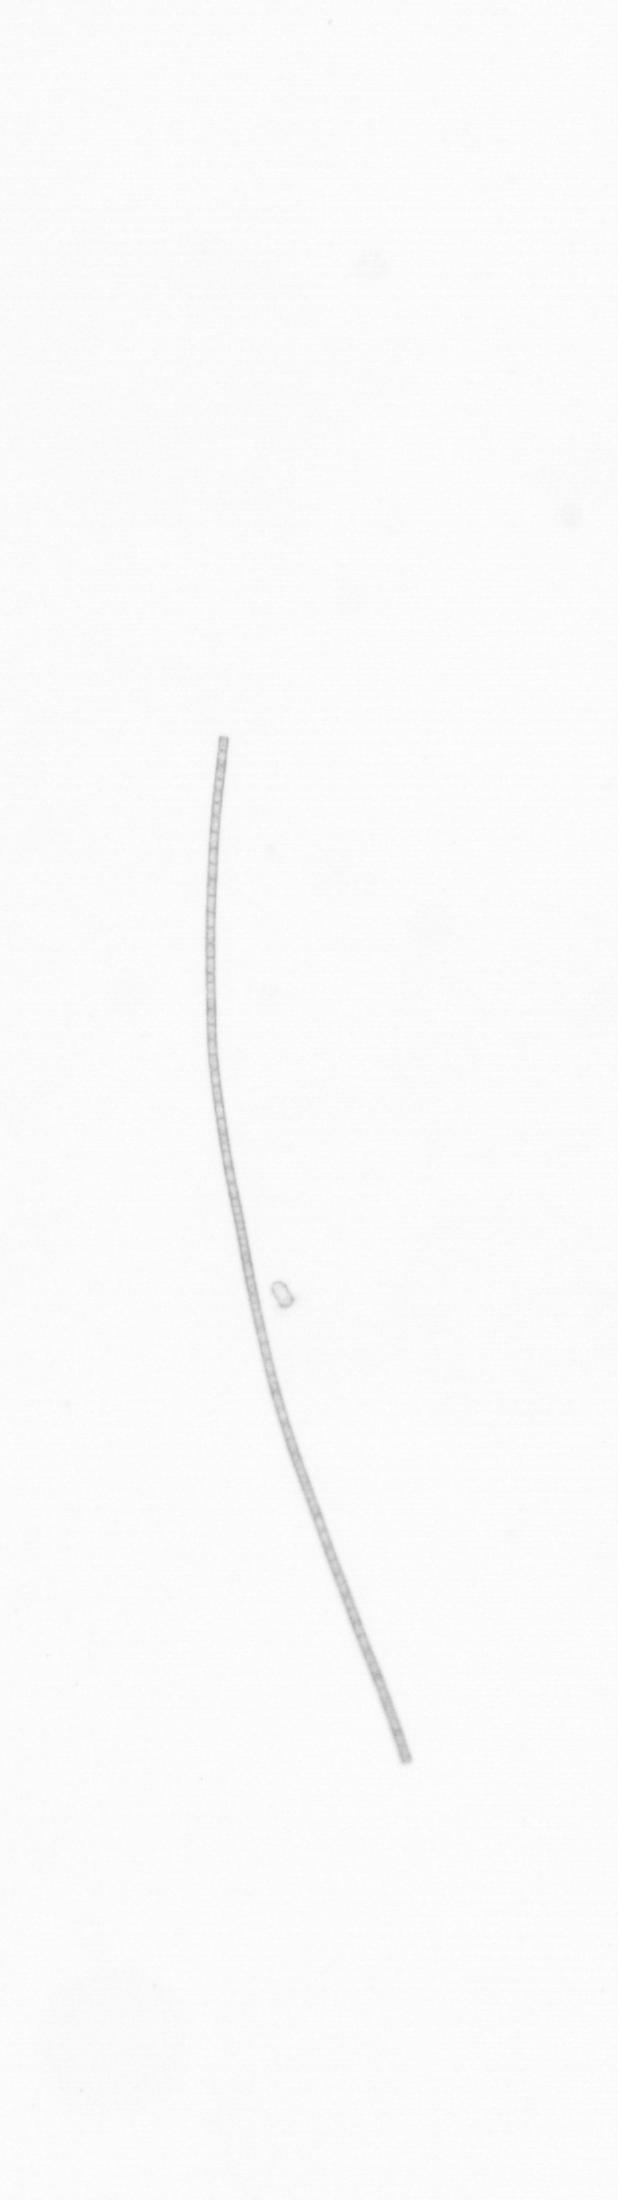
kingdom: Chromista
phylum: Ochrophyta
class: Bacillariophyceae
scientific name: Bacillariophyceae
